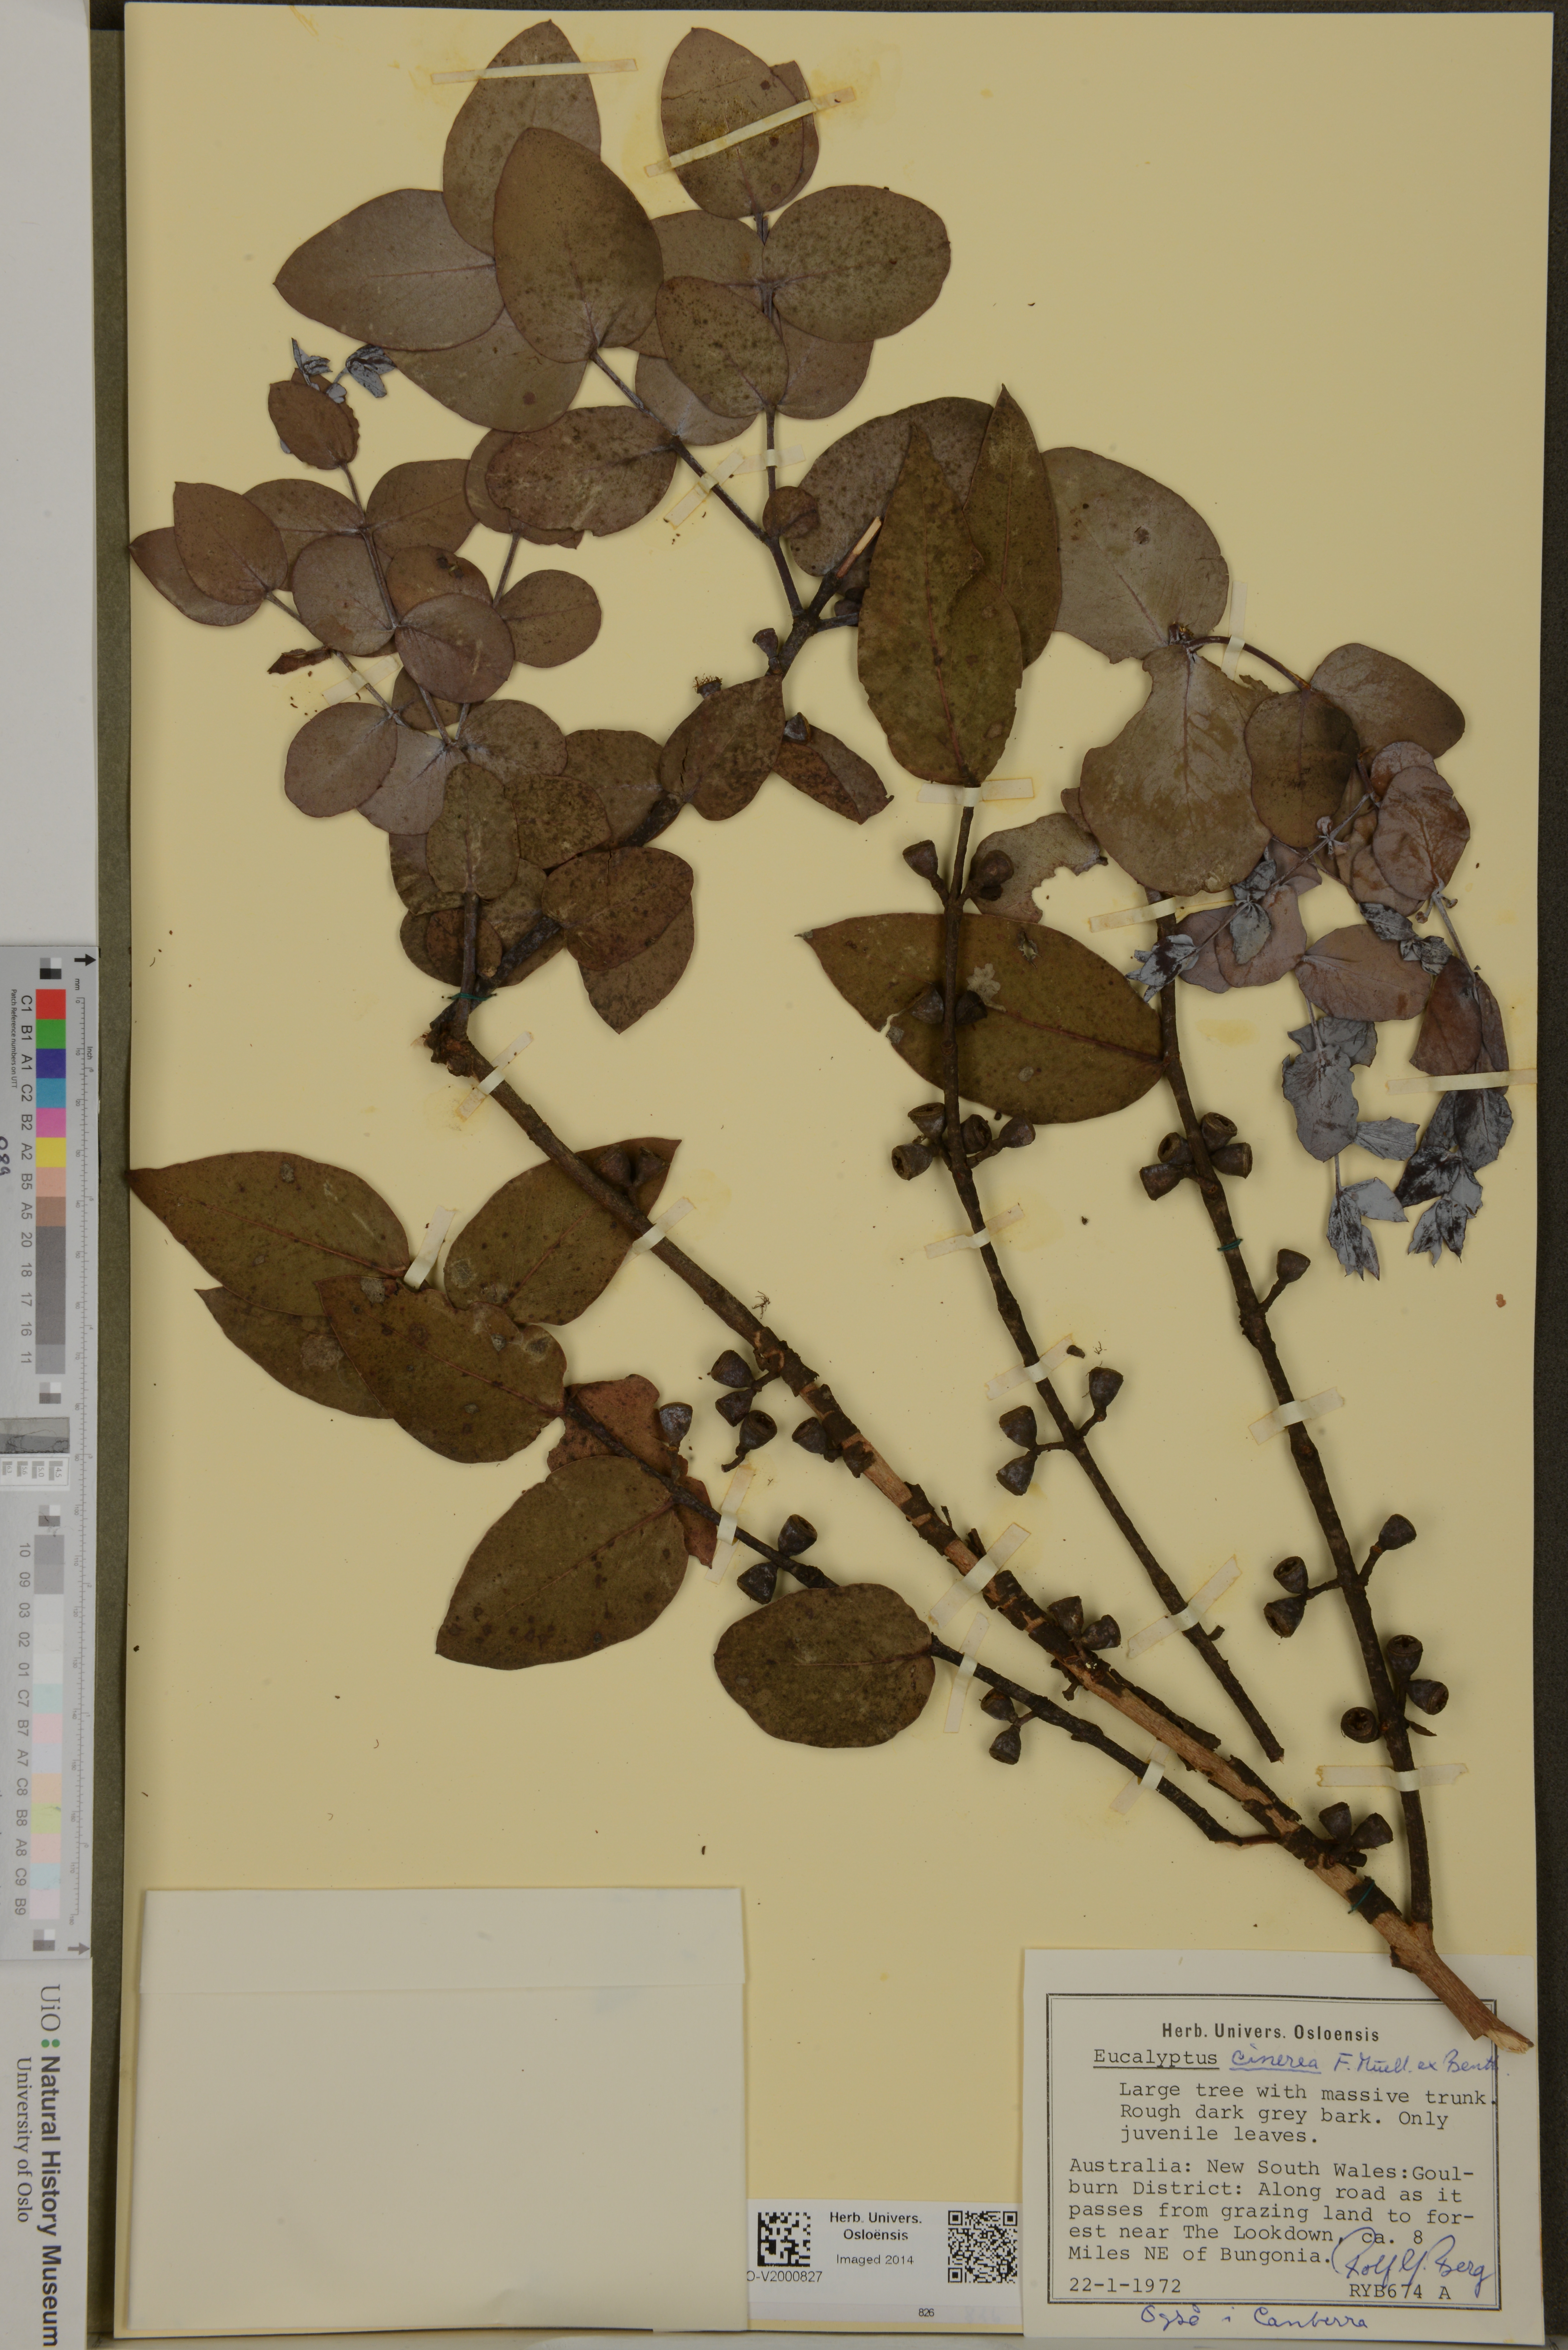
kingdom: Plantae
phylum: Tracheophyta
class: Magnoliopsida
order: Myrtales
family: Myrtaceae
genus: Eucalyptus
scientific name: Eucalyptus cinerea
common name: Argyle apple
